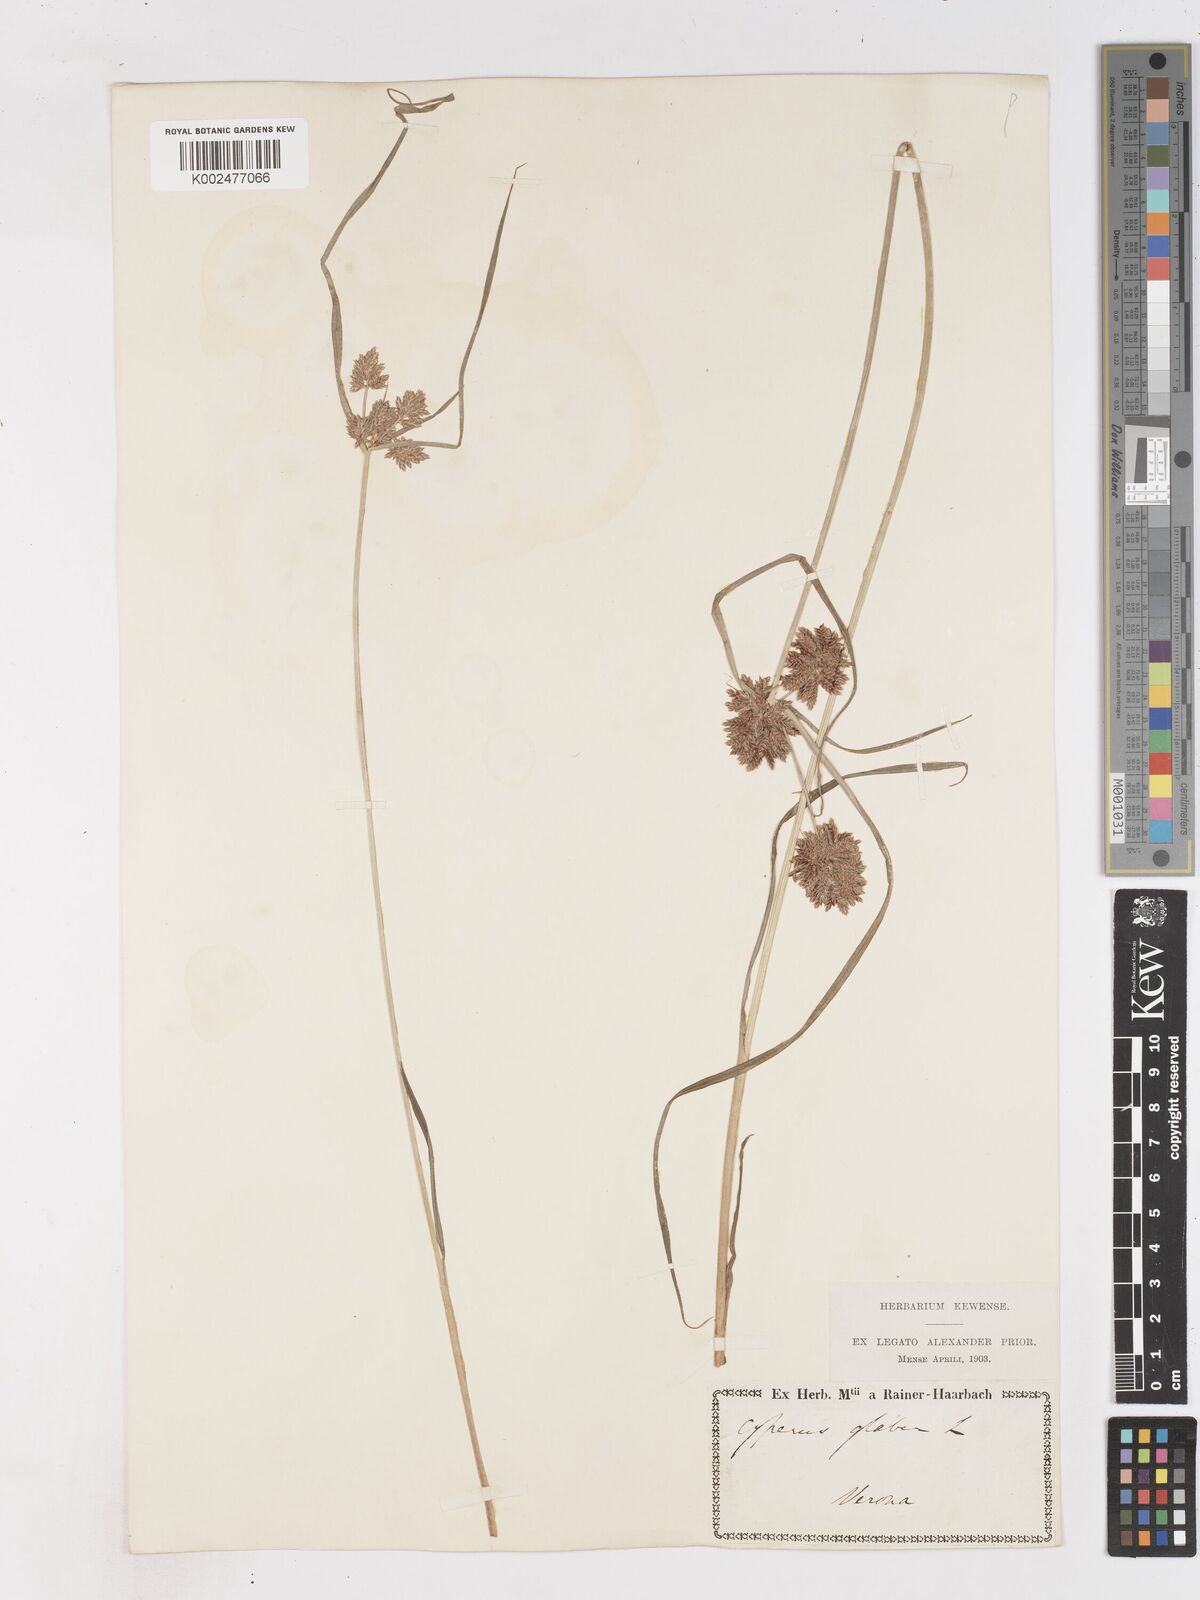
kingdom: Plantae
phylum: Tracheophyta
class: Liliopsida
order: Poales
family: Cyperaceae
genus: Cyperus
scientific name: Cyperus glaber
